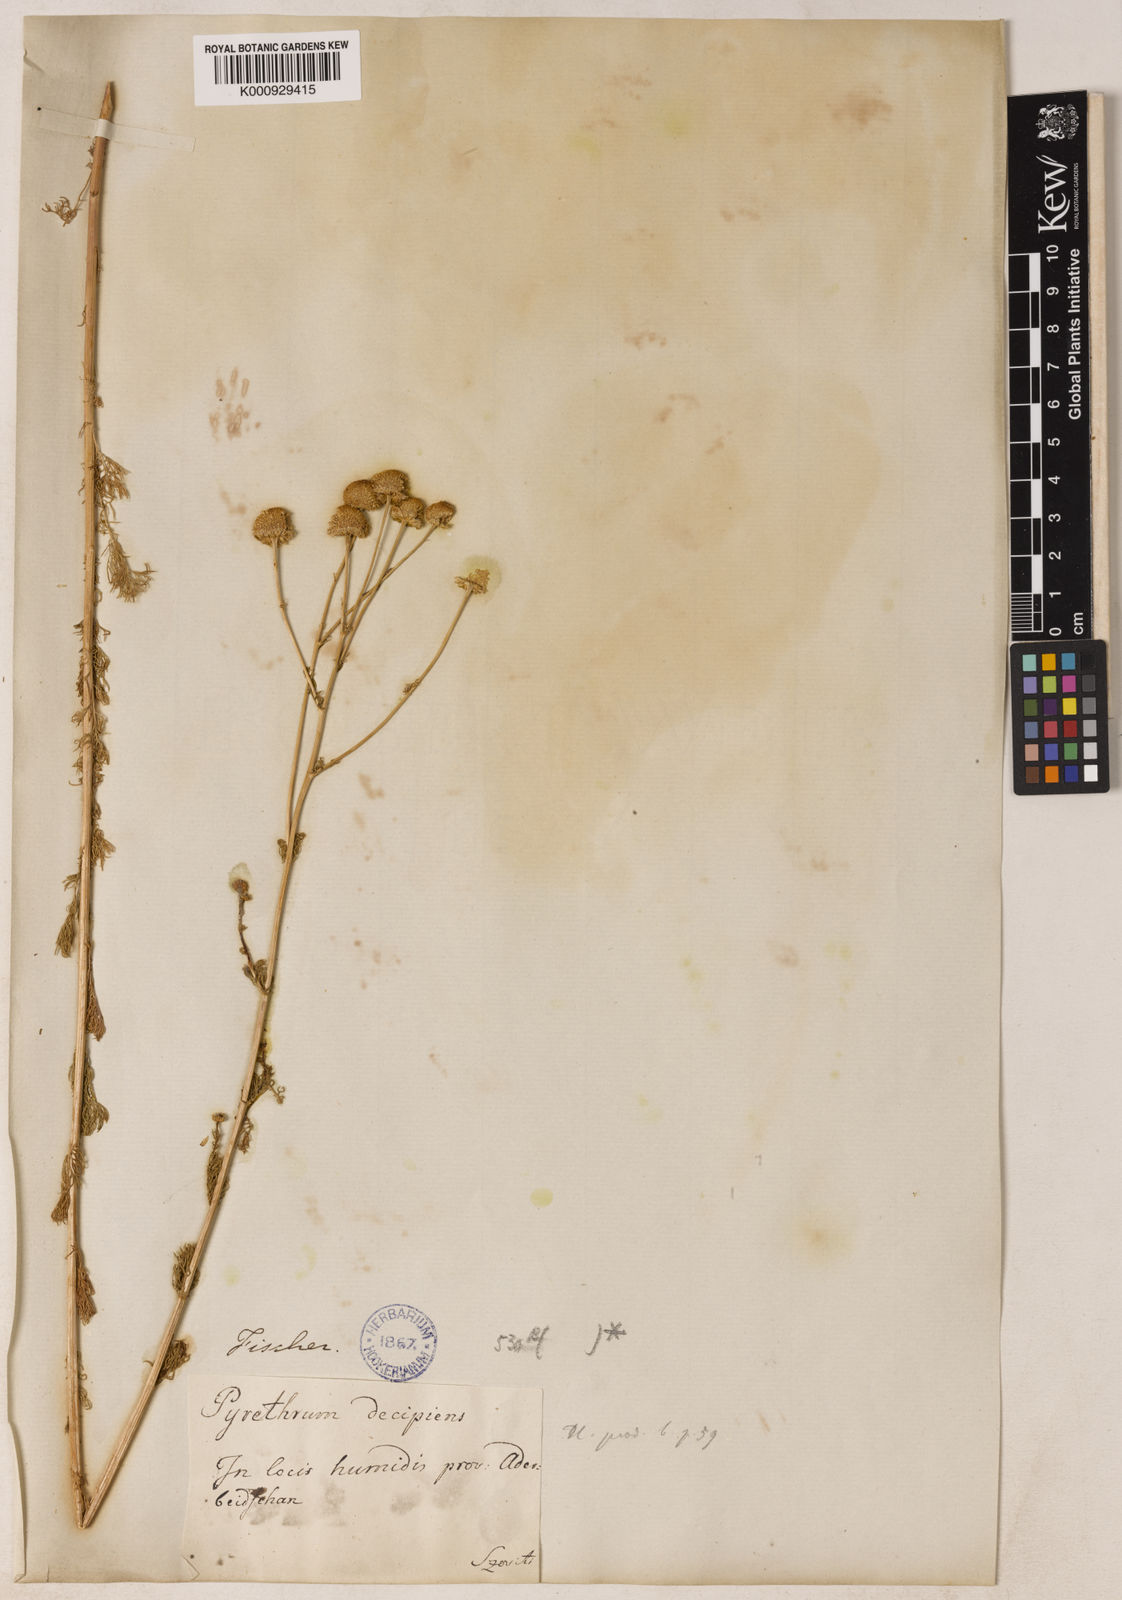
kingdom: Plantae
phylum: Tracheophyta
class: Magnoliopsida
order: Asterales
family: Asteraceae
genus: Tripleurospermum
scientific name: Tripleurospermum
